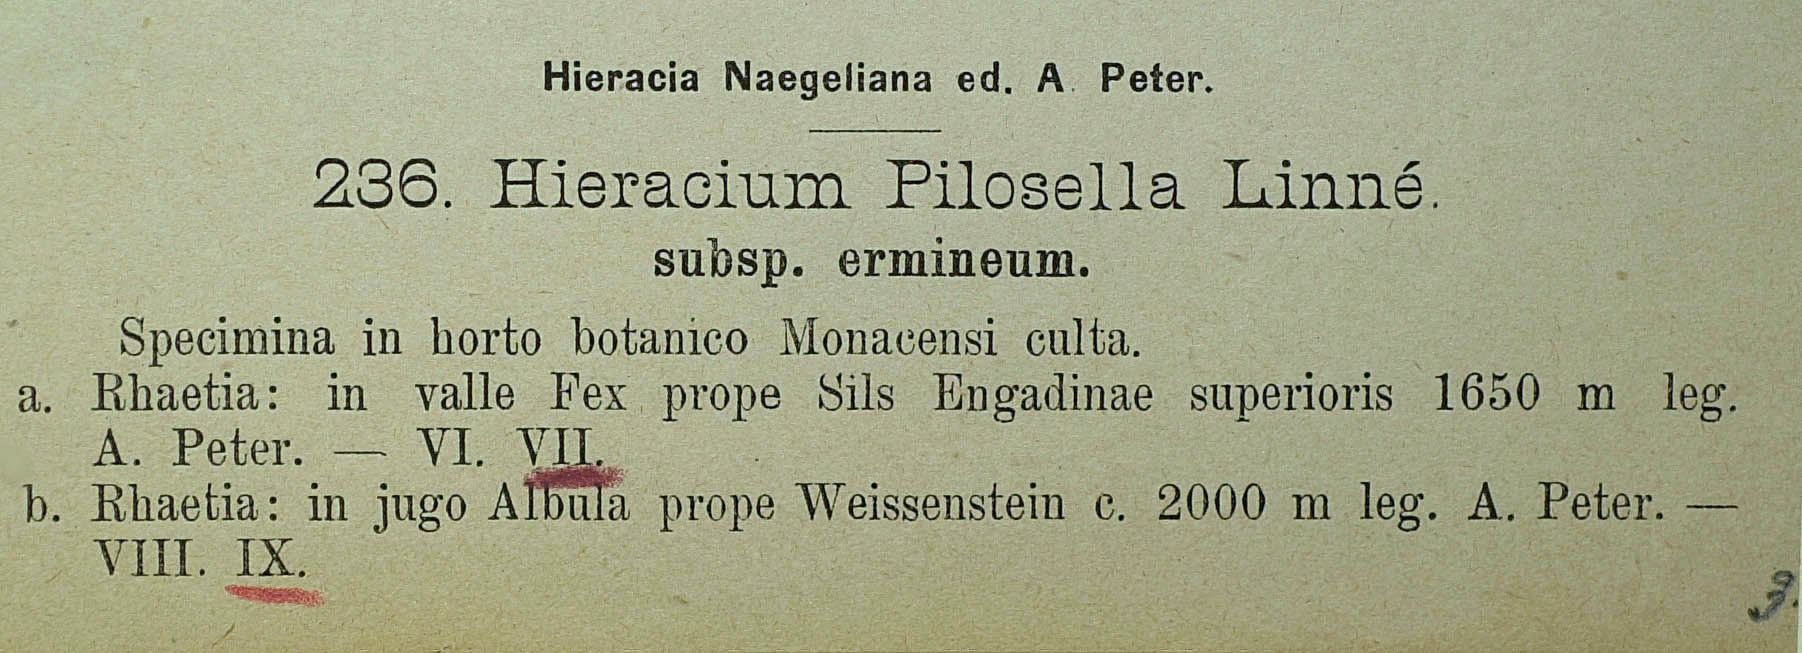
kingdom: Plantae
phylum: Tracheophyta
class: Magnoliopsida
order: Asterales
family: Asteraceae
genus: Pilosella
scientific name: Pilosella officinarum
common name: Mouse-ear hawkweed
